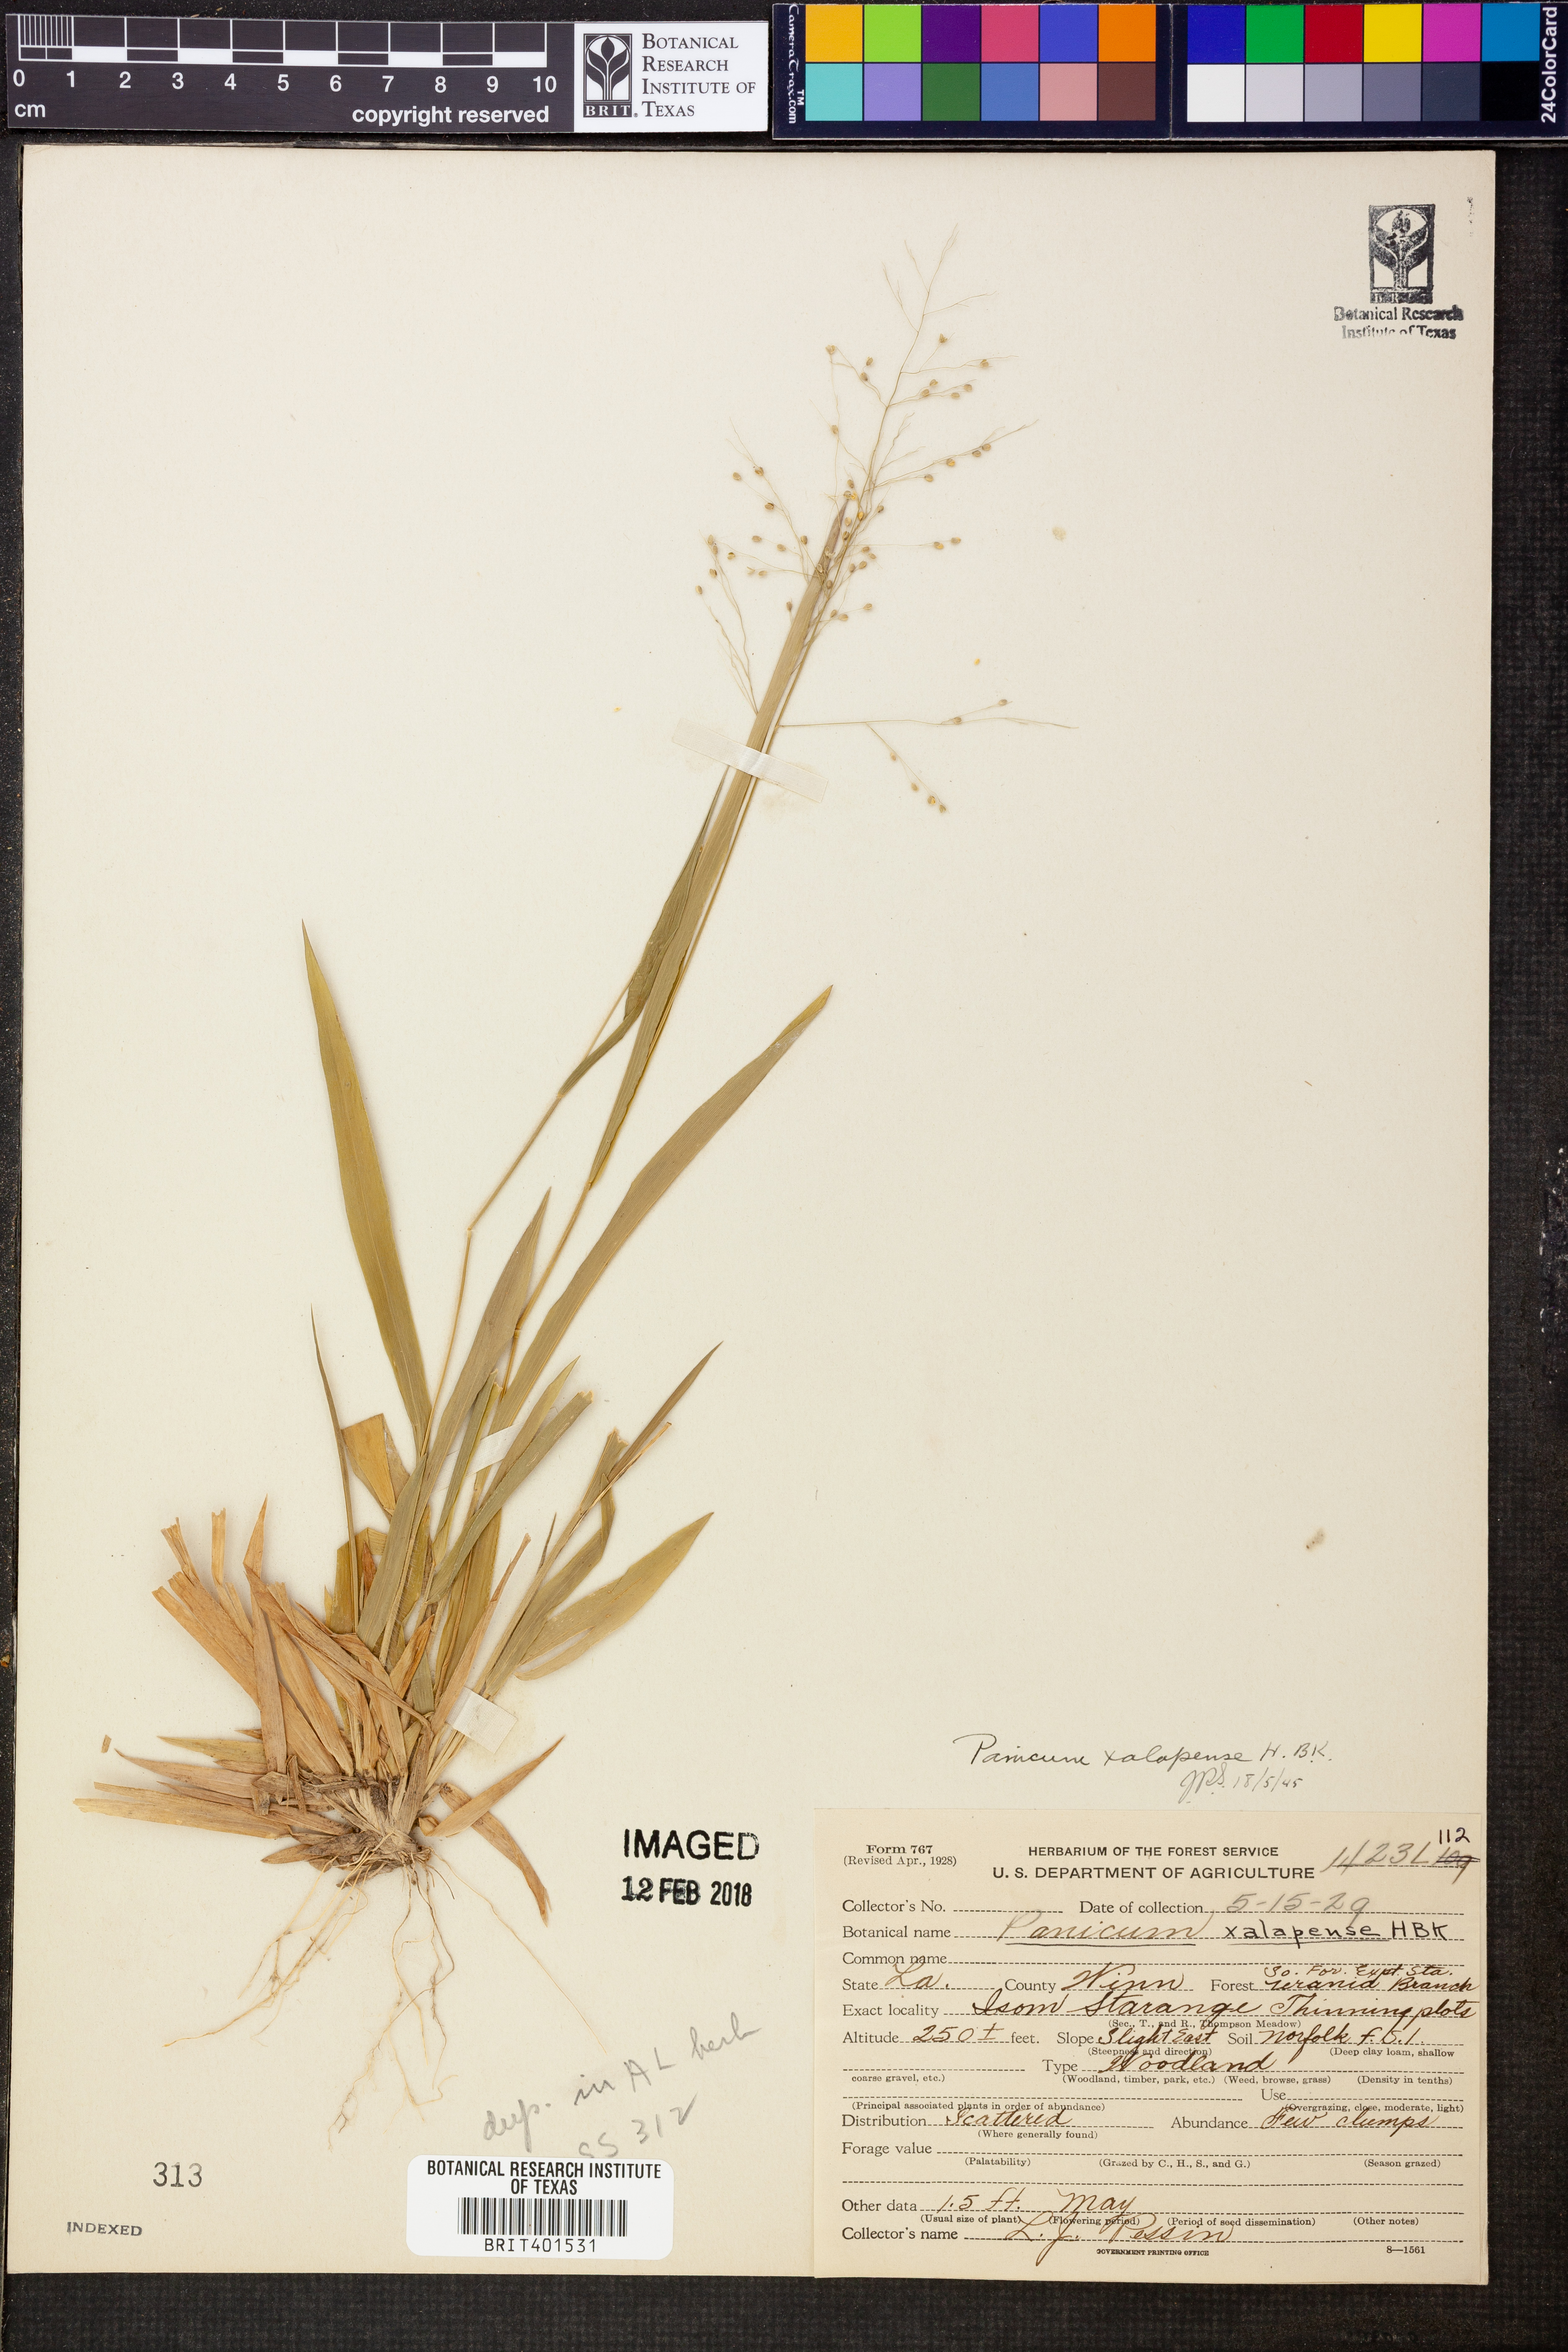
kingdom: Plantae
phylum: Tracheophyta
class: Liliopsida
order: Poales
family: Poaceae
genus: Dichanthelium
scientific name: Dichanthelium xalapense
